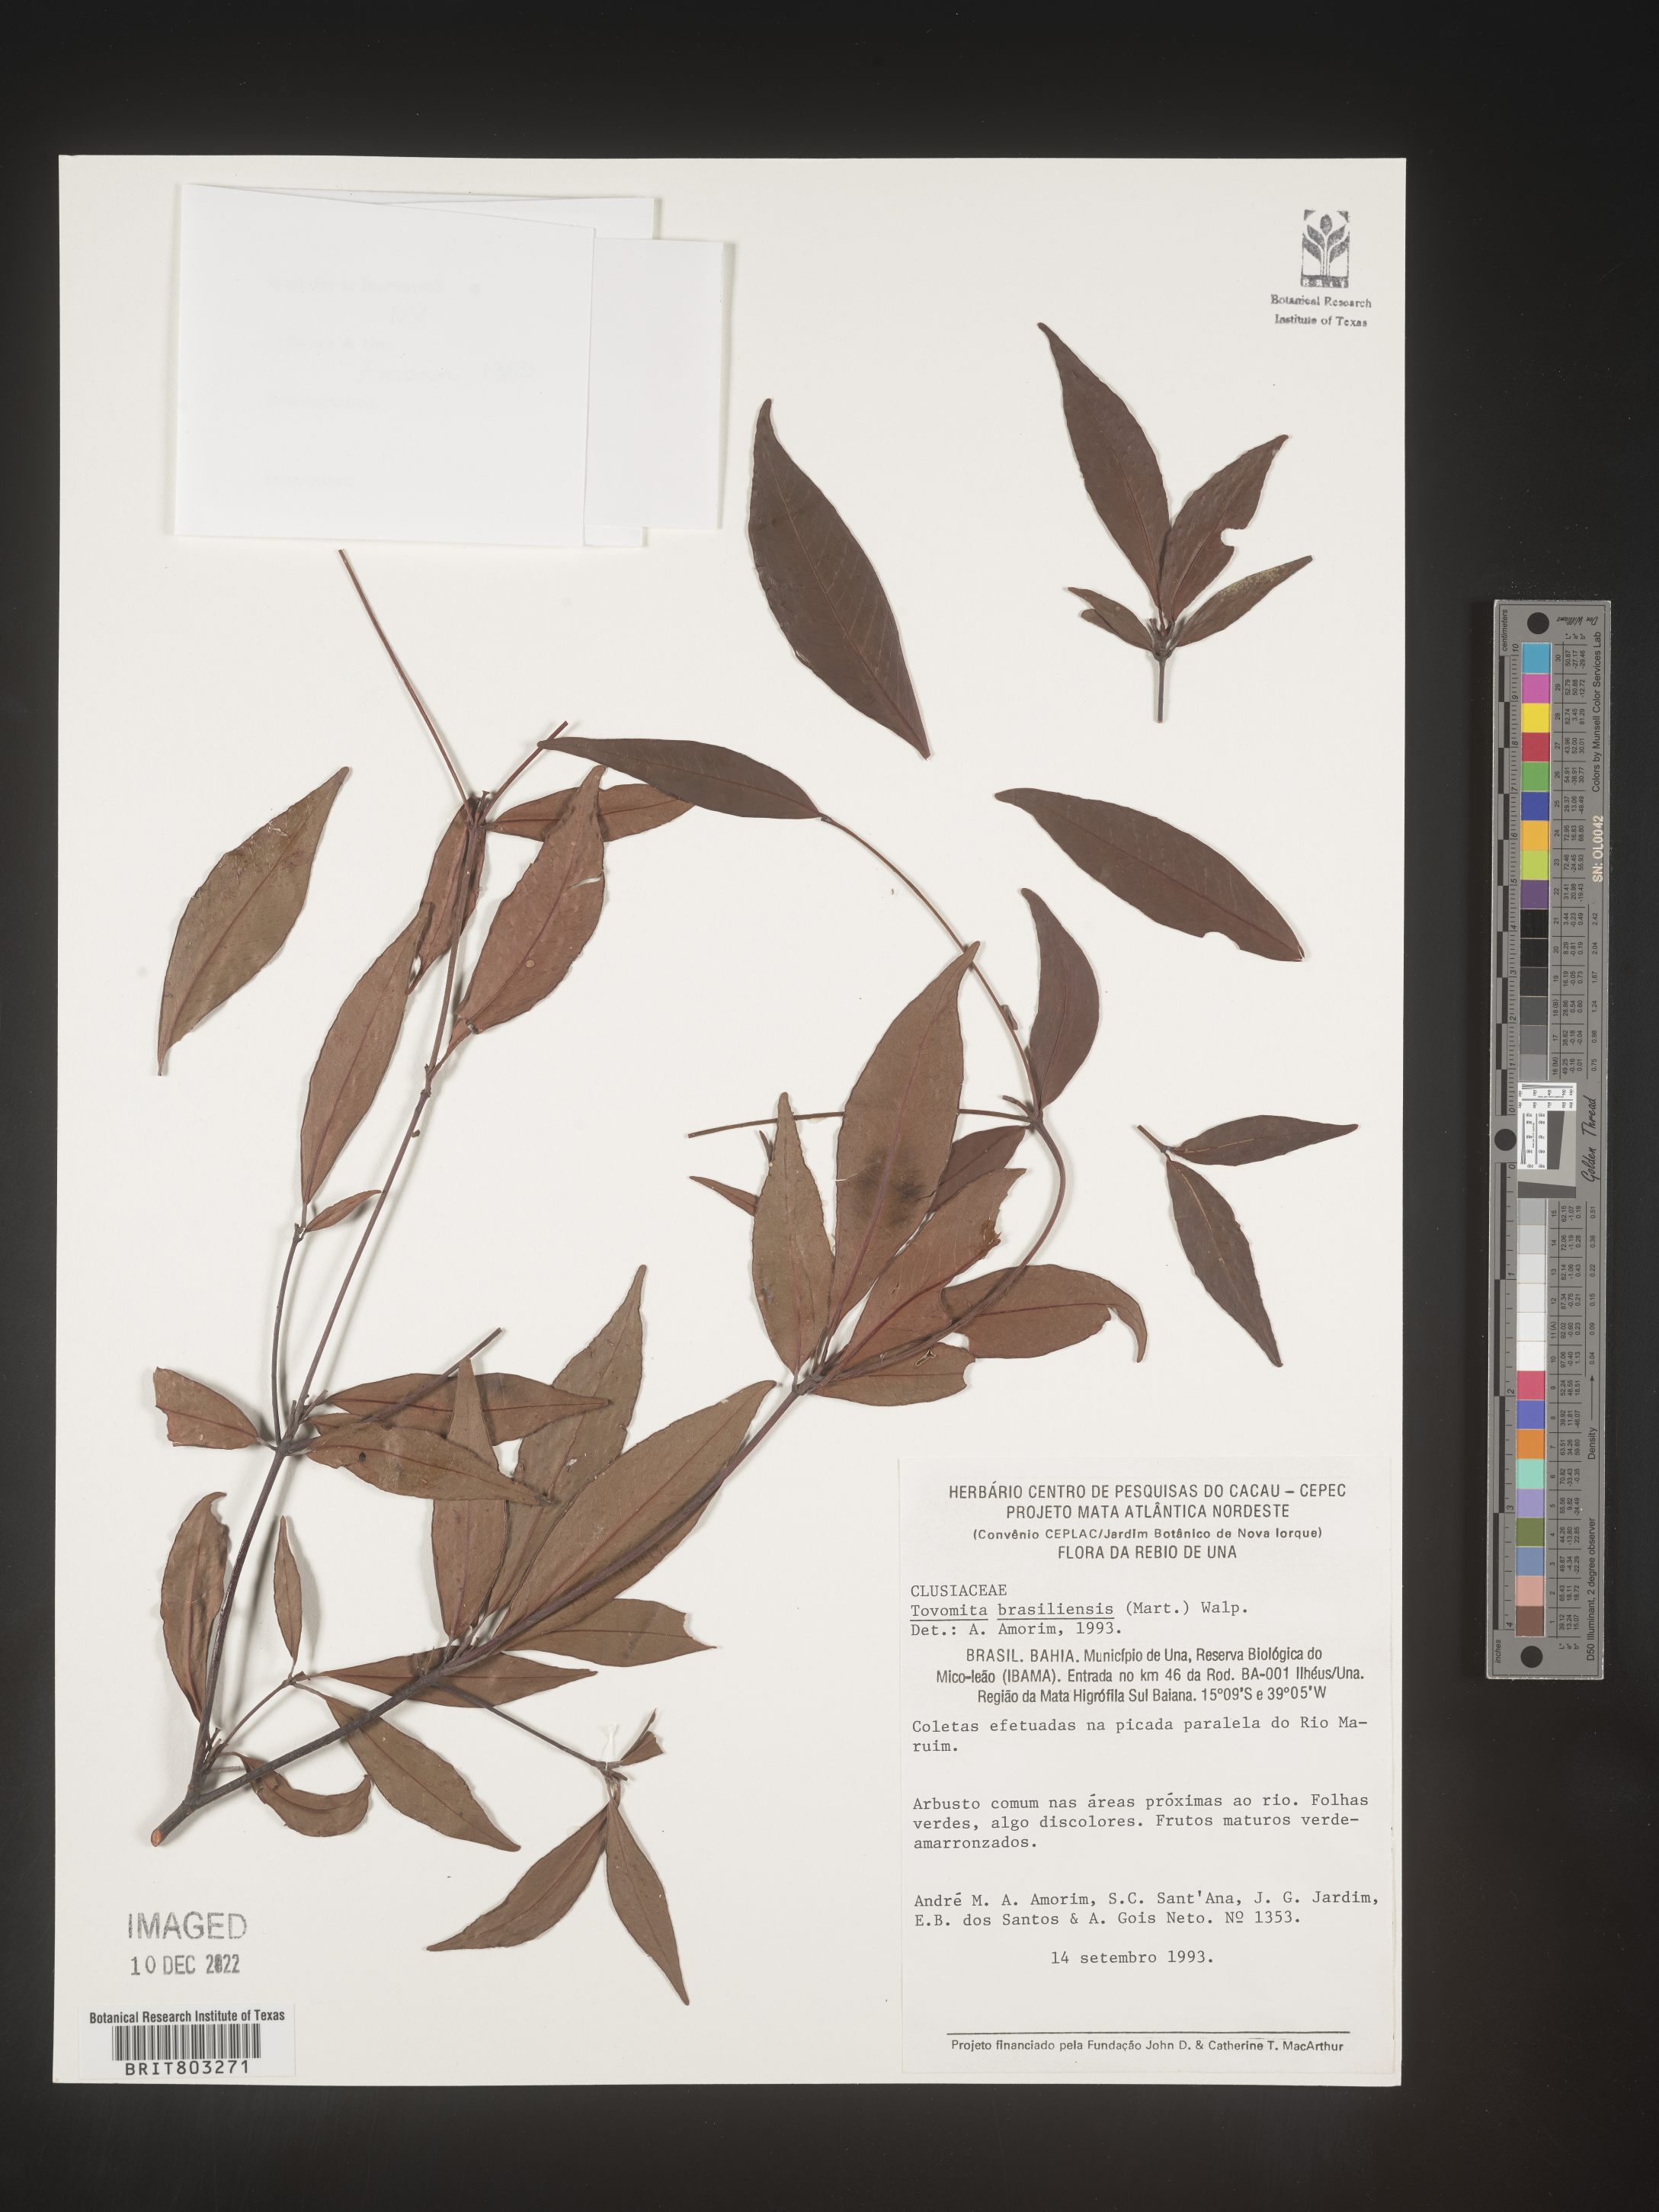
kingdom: Plantae
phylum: Tracheophyta
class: Magnoliopsida
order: Malpighiales
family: Clusiaceae
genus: Tovomita
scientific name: Tovomita
